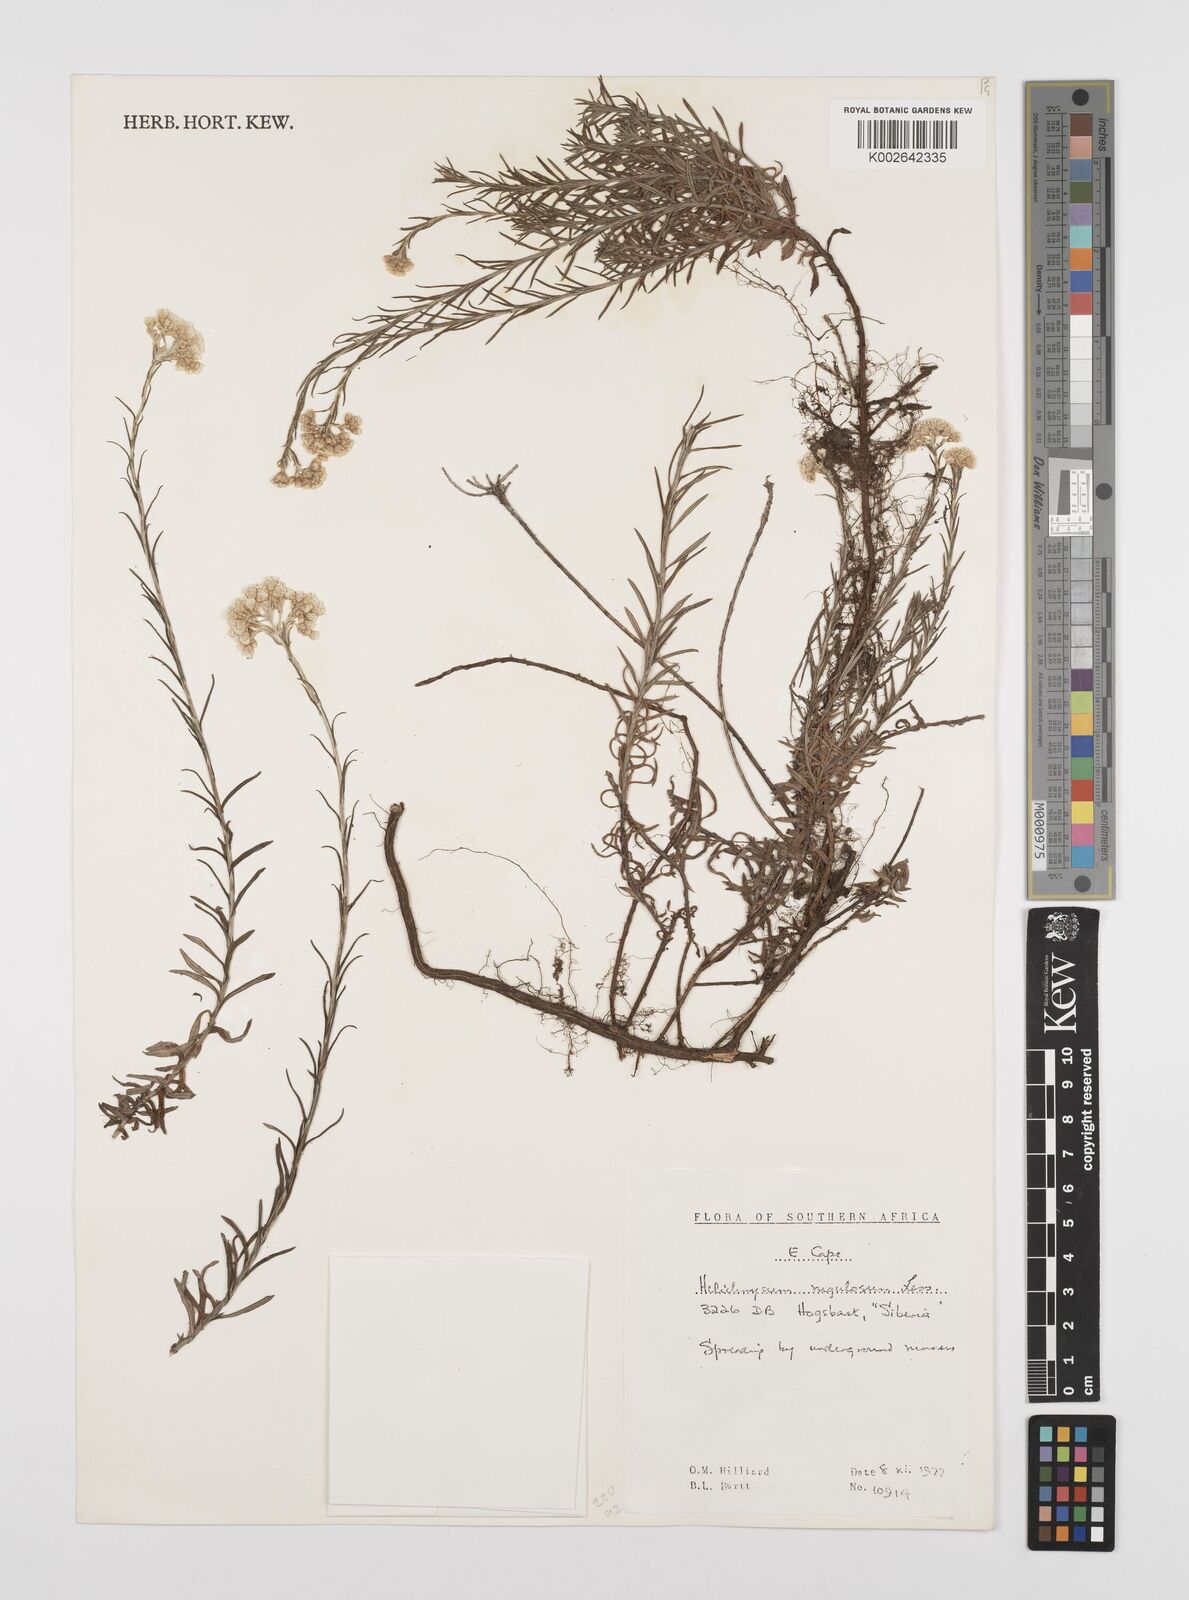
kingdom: Plantae
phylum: Tracheophyta
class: Magnoliopsida
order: Asterales
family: Asteraceae
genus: Helichrysum
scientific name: Helichrysum rugulosum
